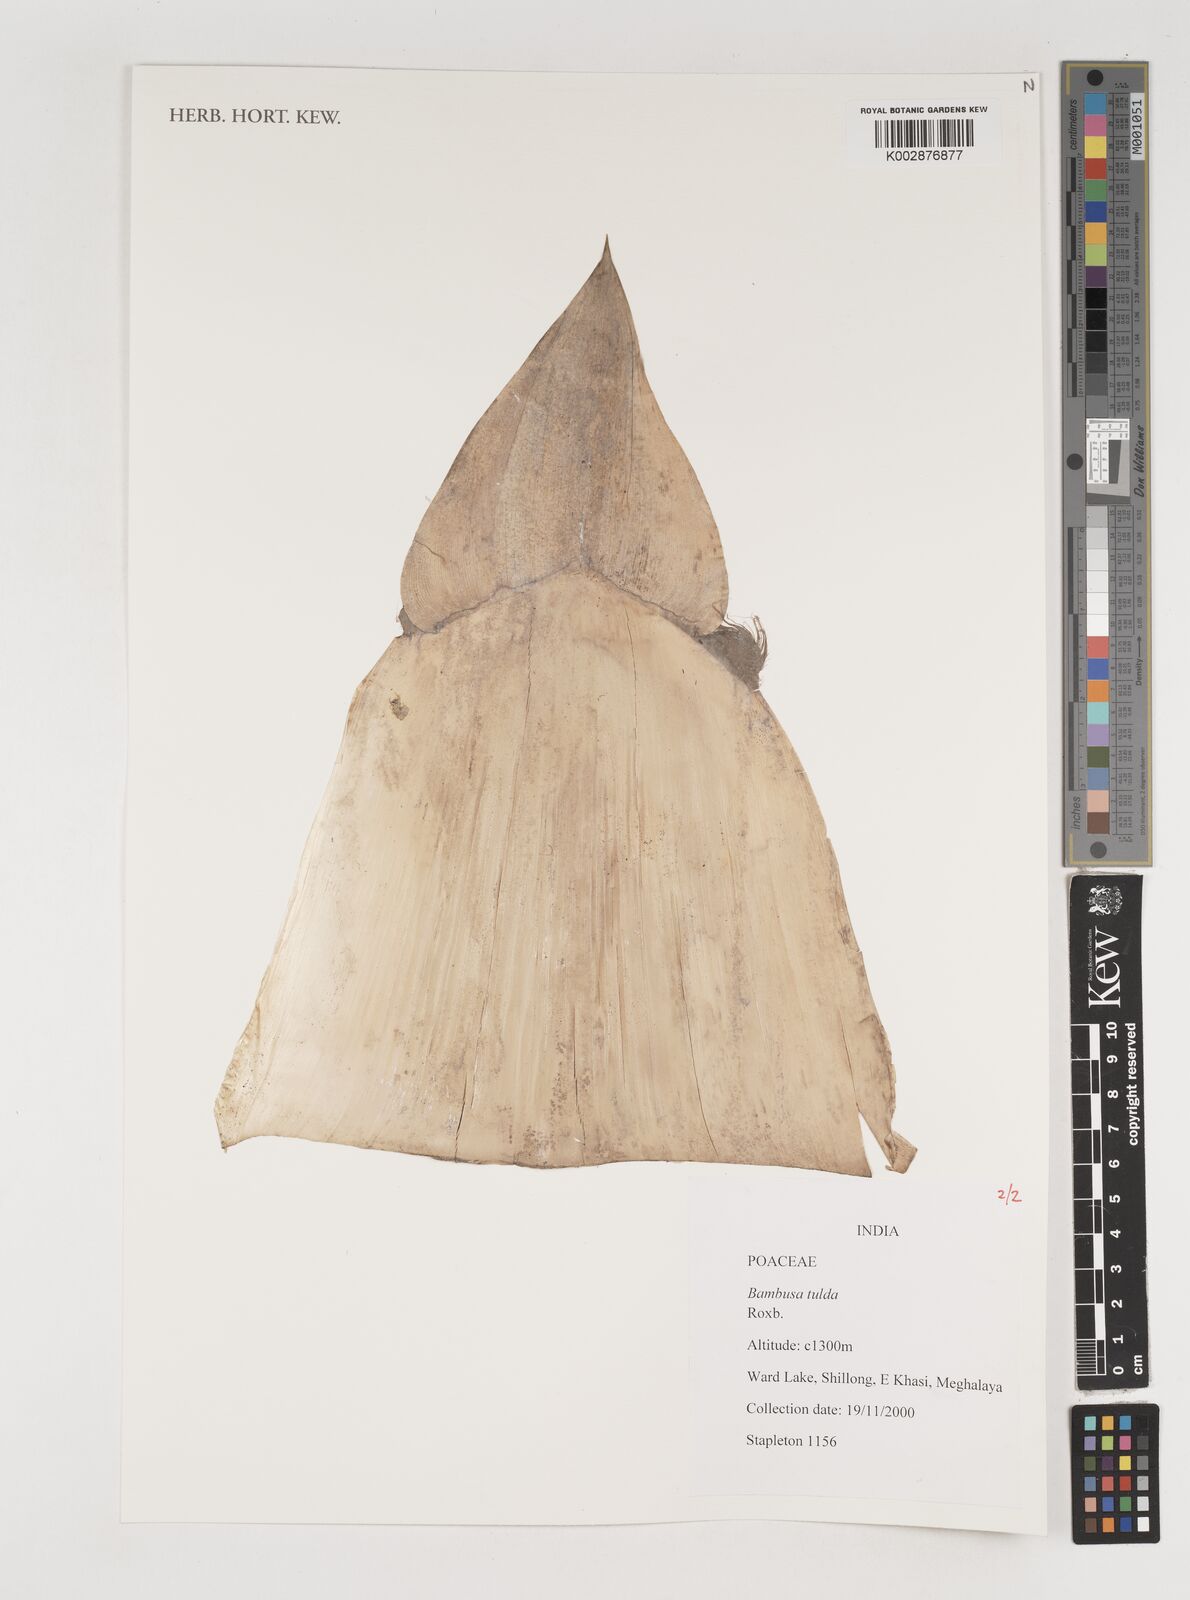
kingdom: Plantae
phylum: Tracheophyta
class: Liliopsida
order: Poales
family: Poaceae
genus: Bambusa
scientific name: Bambusa tuldoides
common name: Verdant bamboo
